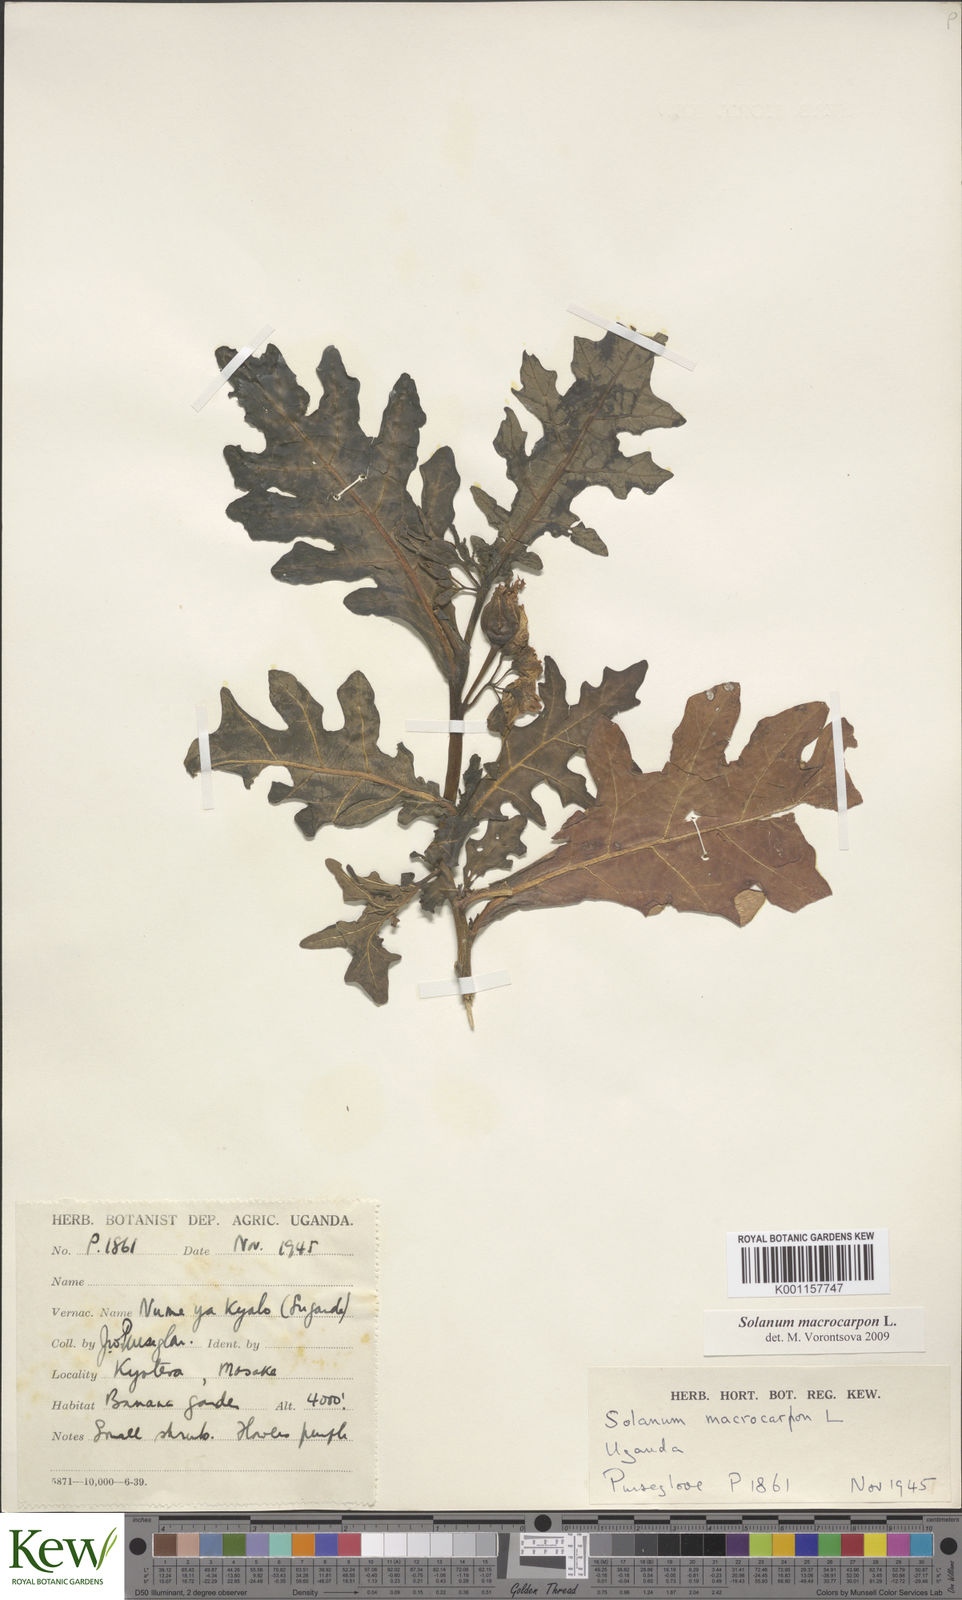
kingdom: Plantae
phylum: Tracheophyta
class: Magnoliopsida
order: Solanales
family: Solanaceae
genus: Solanum
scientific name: Solanum macrocarpon
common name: African eggplant
